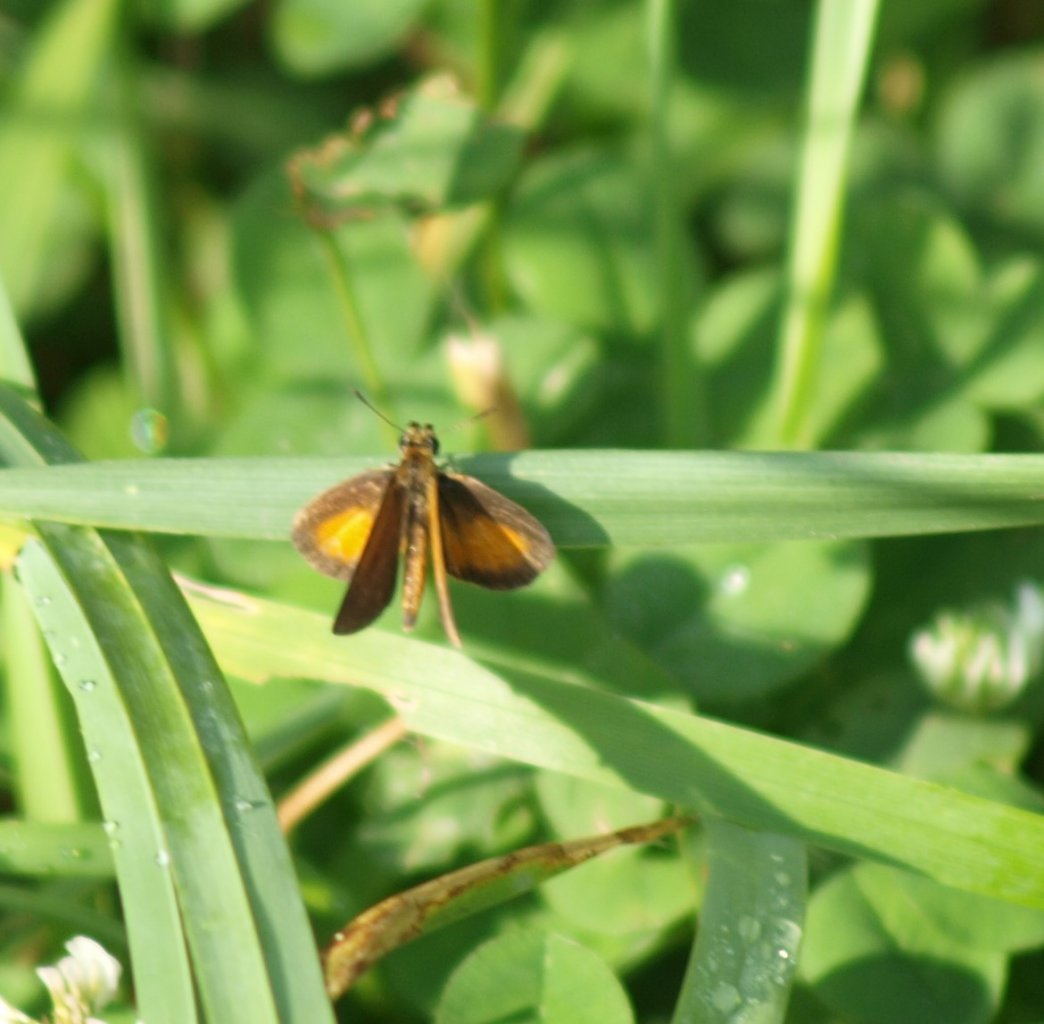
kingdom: Animalia
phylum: Arthropoda
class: Insecta
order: Lepidoptera
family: Hesperiidae
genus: Ancyloxypha
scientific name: Ancyloxypha numitor
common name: Least Skipper
